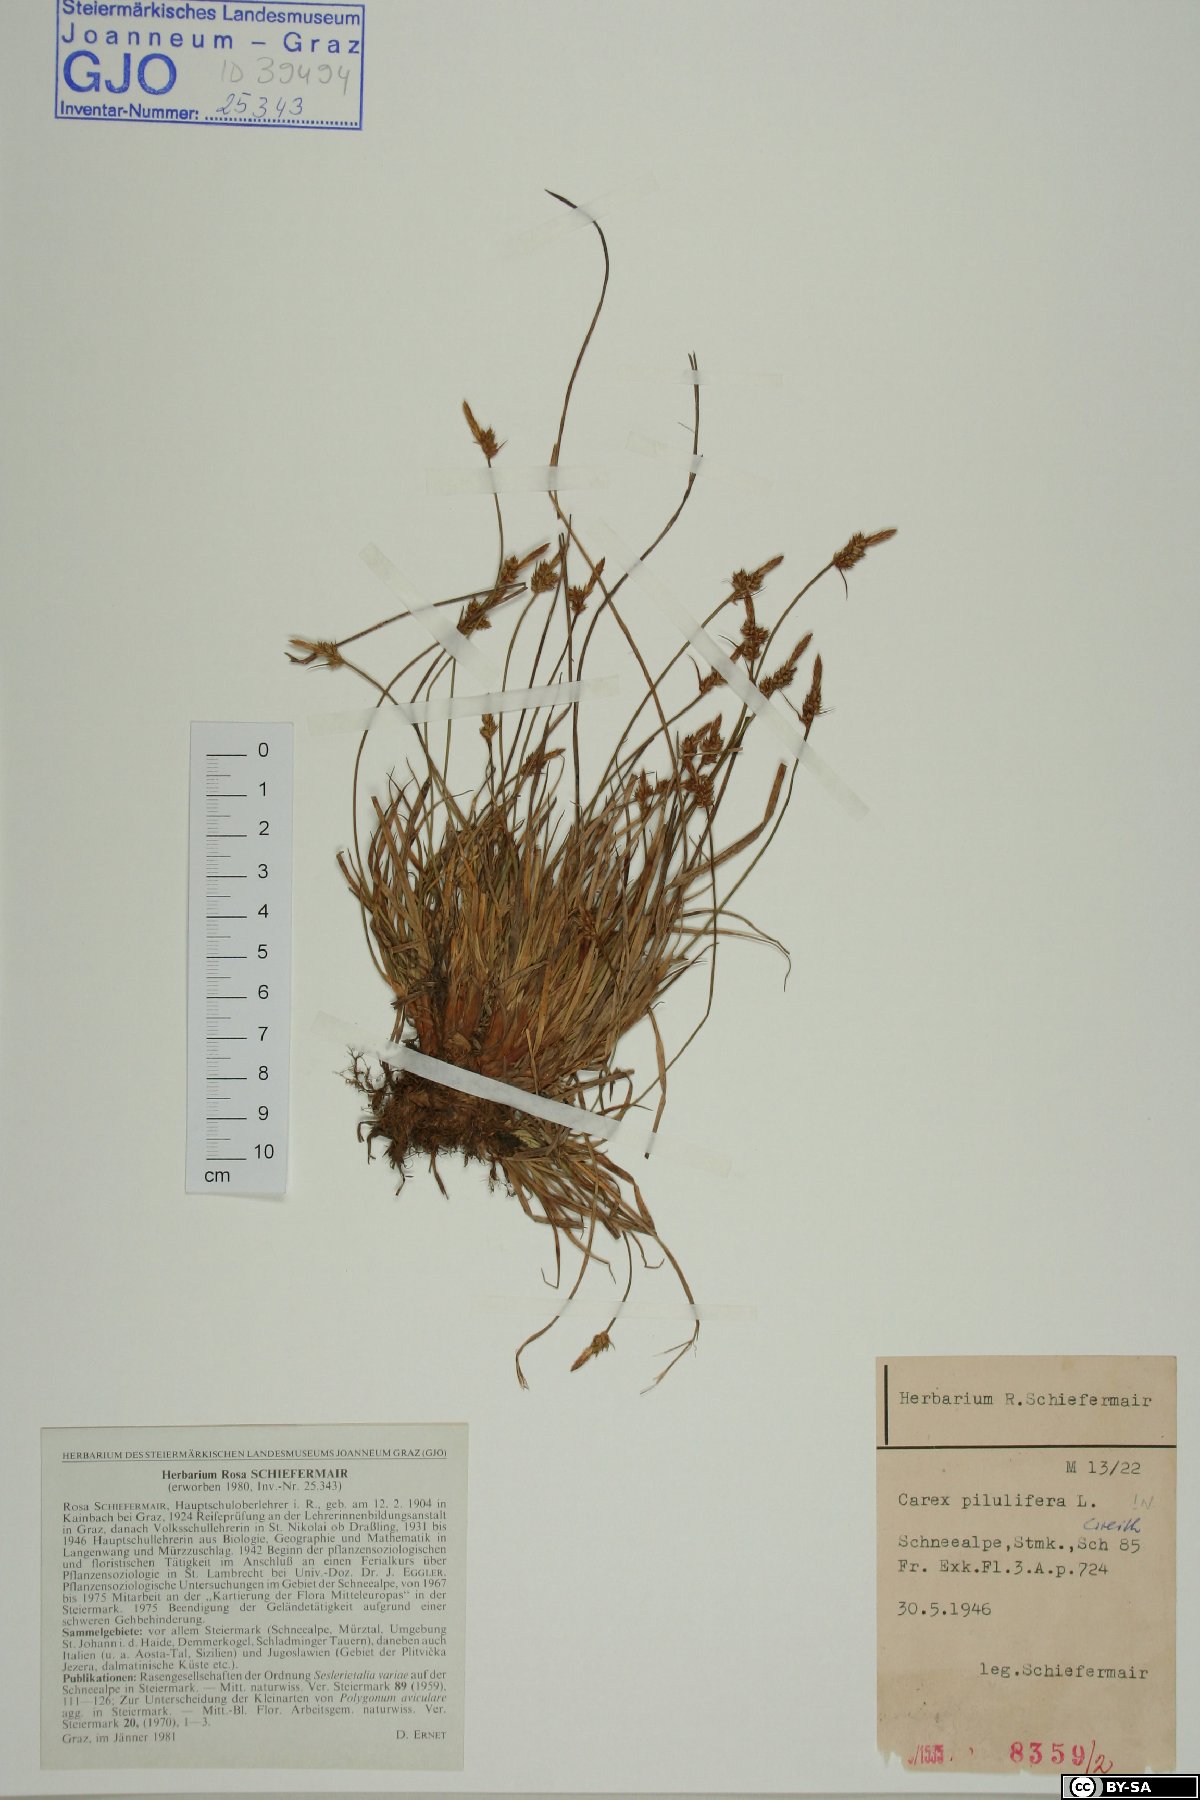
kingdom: Plantae
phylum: Tracheophyta
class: Liliopsida
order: Poales
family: Cyperaceae
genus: Carex
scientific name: Carex pilulifera
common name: Pill sedge
